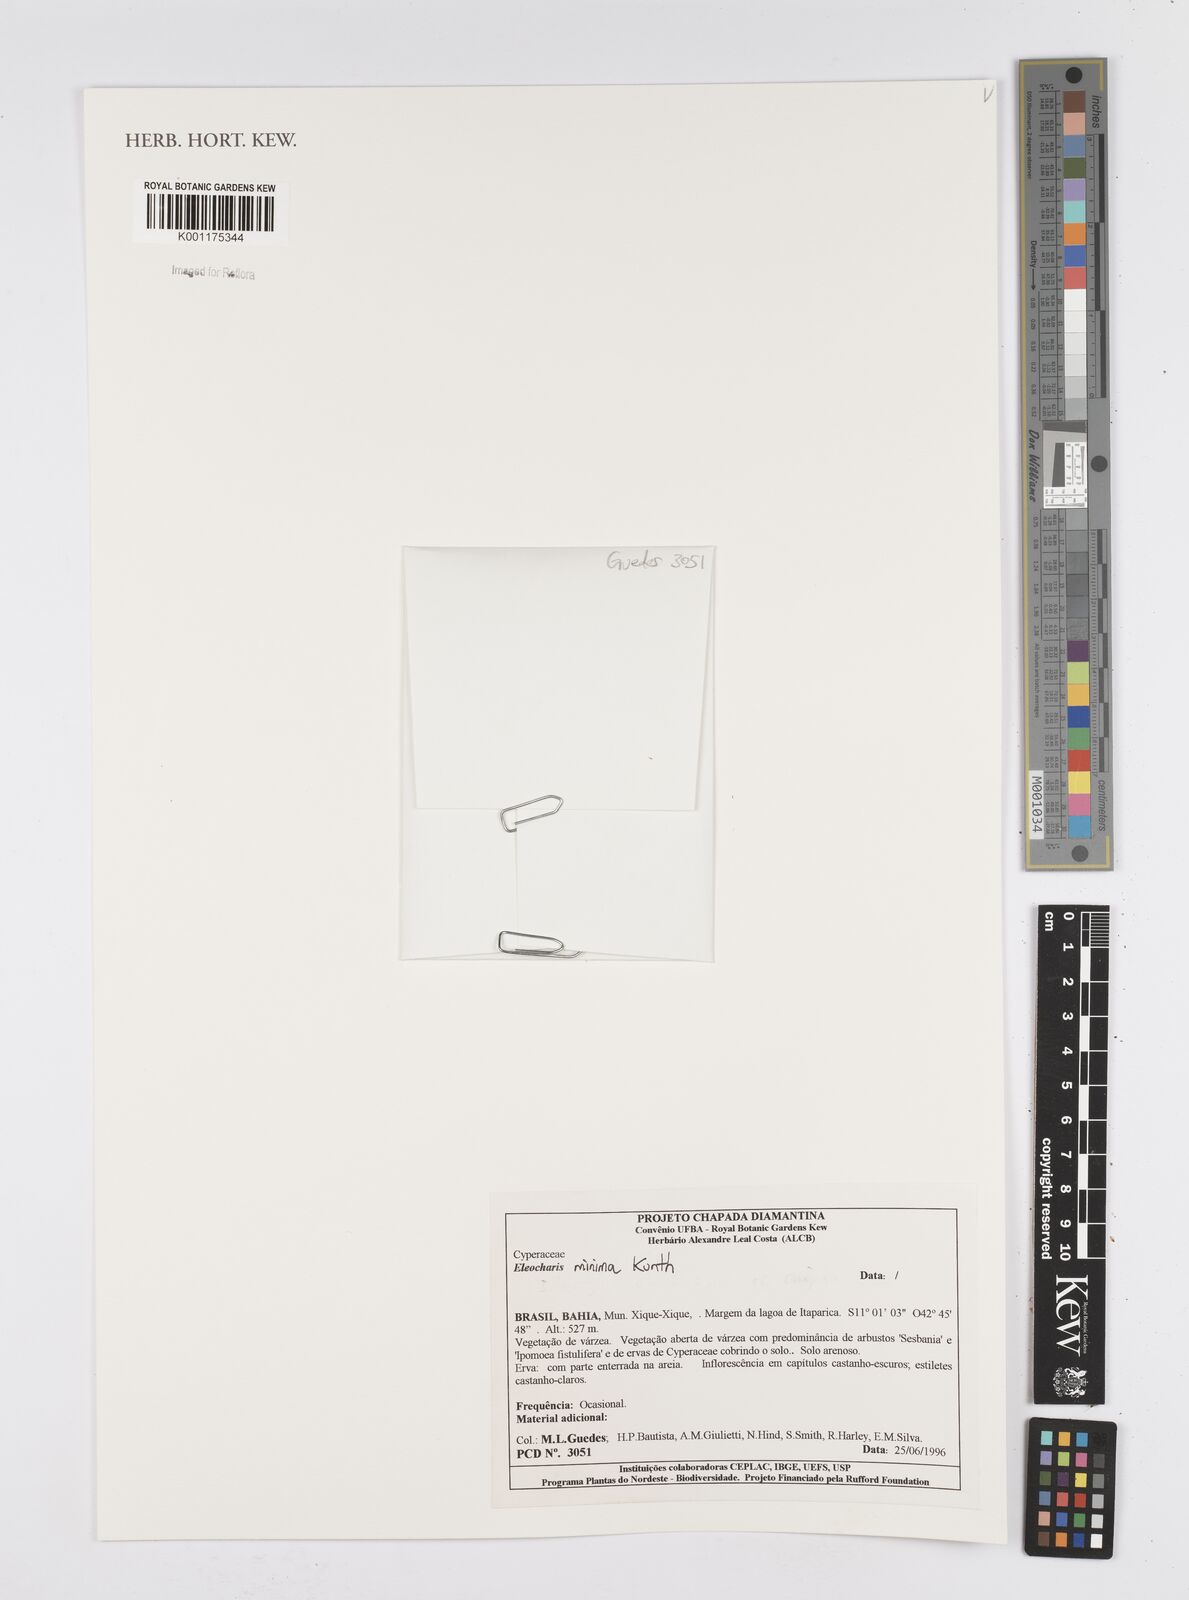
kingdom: Plantae
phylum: Tracheophyta
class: Liliopsida
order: Poales
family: Cyperaceae
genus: Eleocharis
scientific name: Eleocharis minima
